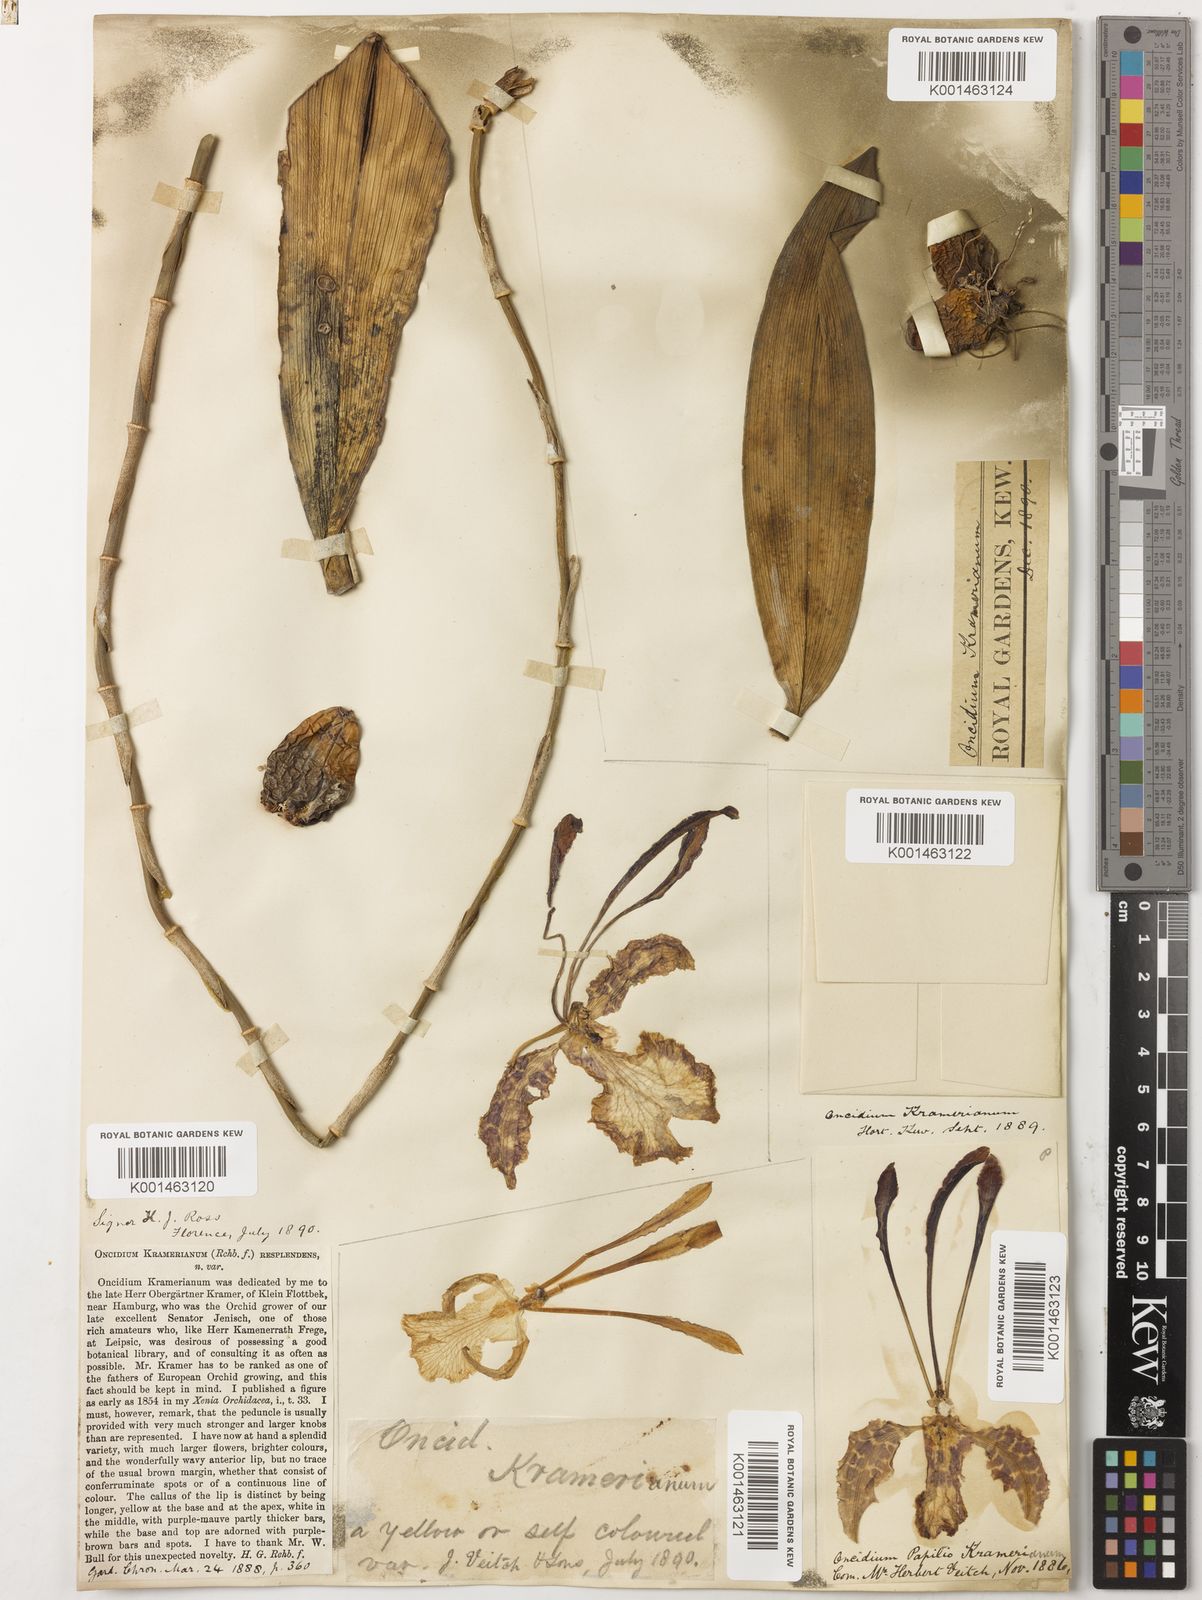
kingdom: Plantae
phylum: Tracheophyta
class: Liliopsida
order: Asparagales
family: Orchidaceae
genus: Psychopsis
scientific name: Psychopsis krameriana
